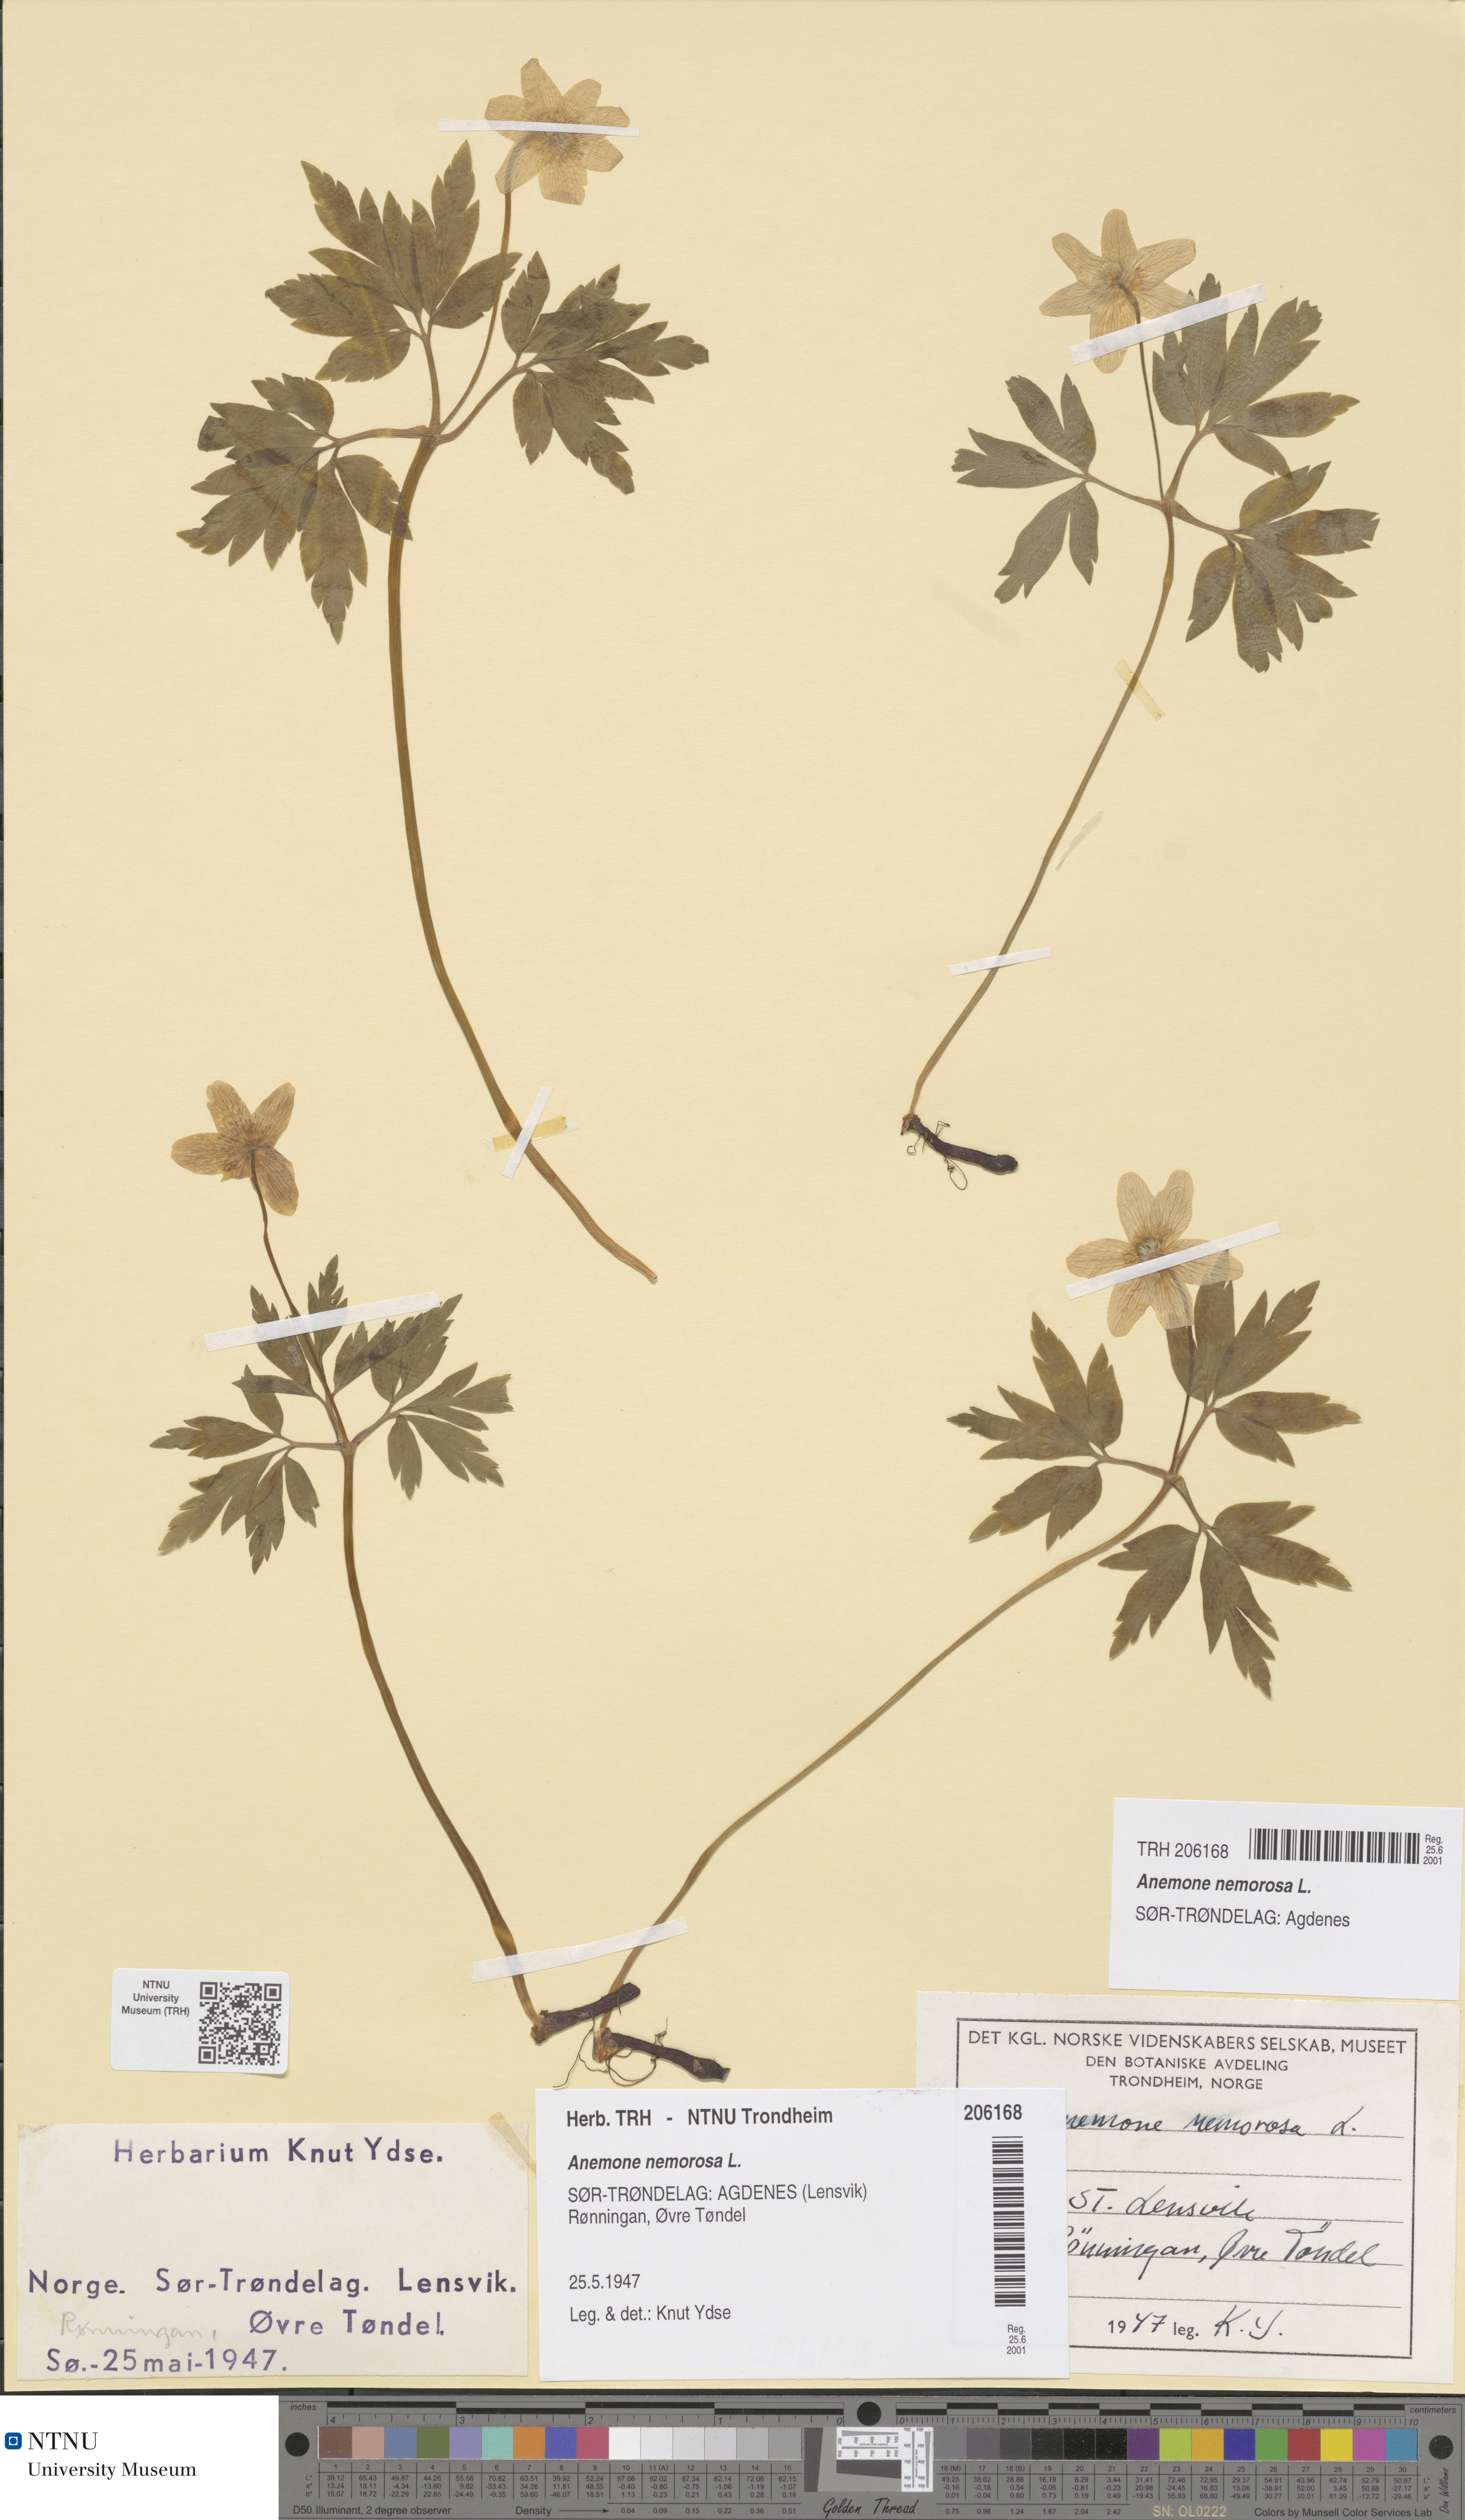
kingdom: Plantae
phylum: Tracheophyta
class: Magnoliopsida
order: Ranunculales
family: Ranunculaceae
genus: Anemone
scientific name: Anemone nemorosa
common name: Wood anemone
